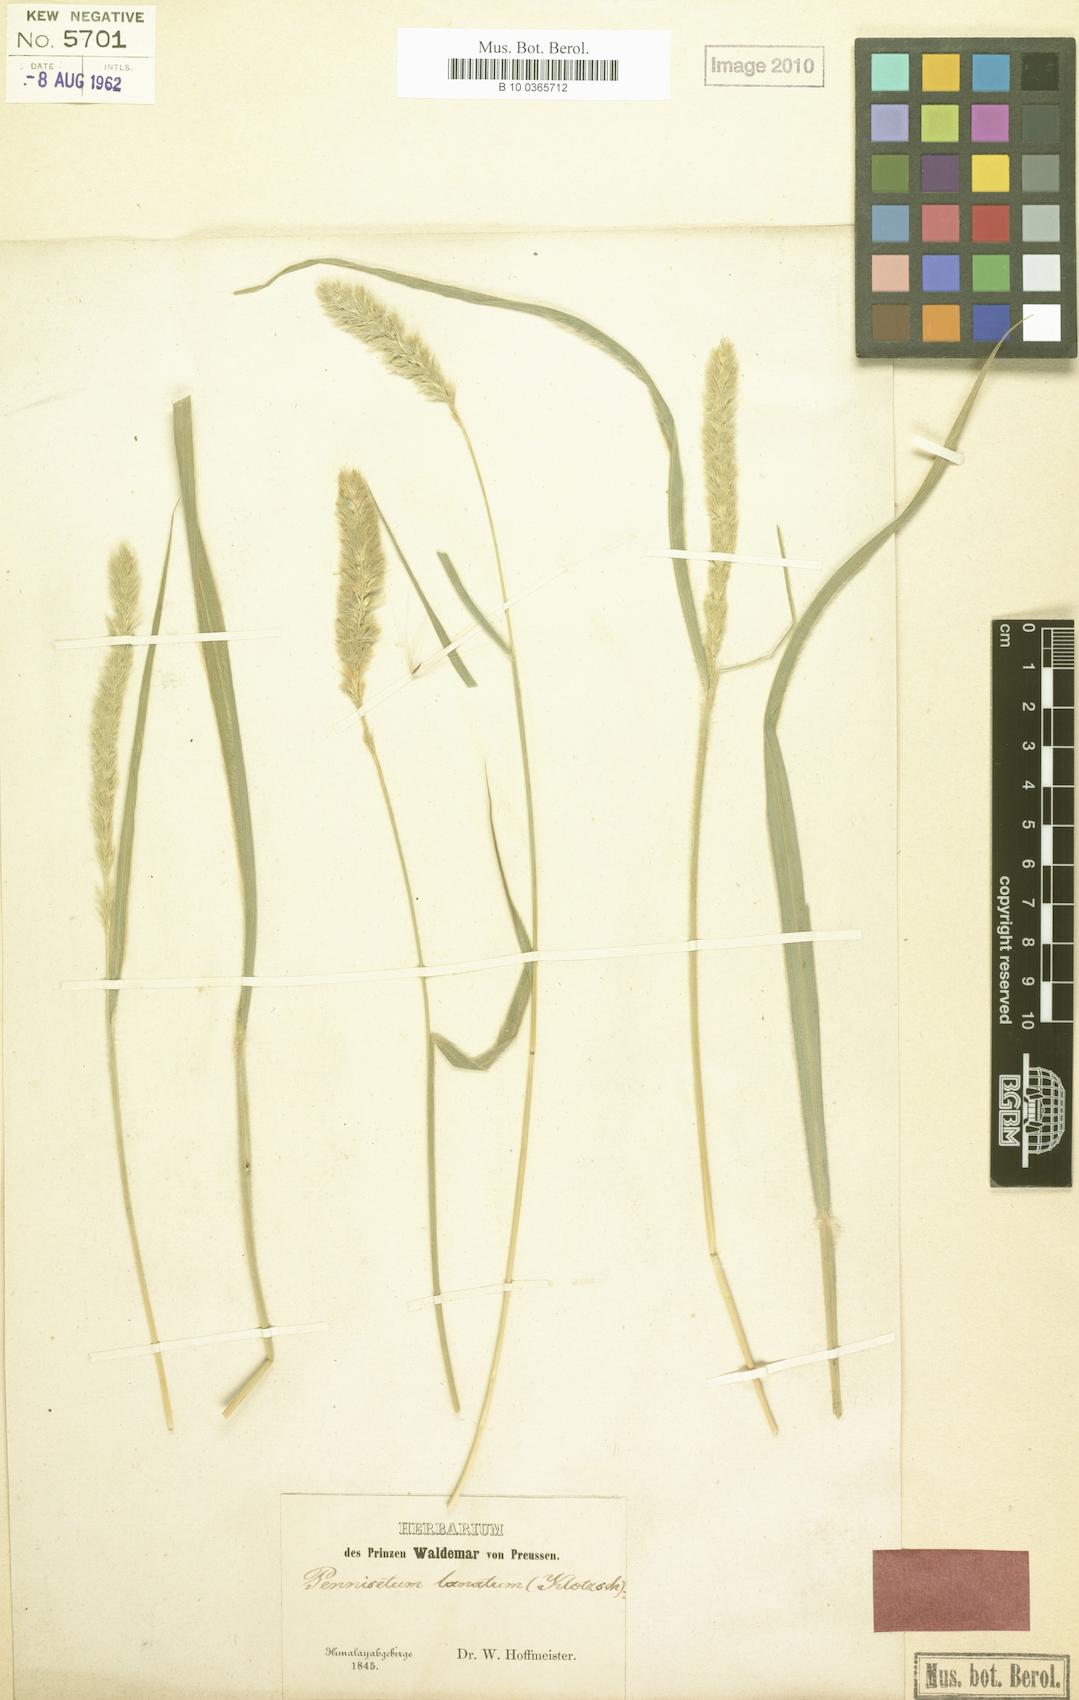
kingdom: Plantae
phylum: Tracheophyta
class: Liliopsida
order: Poales
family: Poaceae
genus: Cenchrus
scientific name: Cenchrus lanatus
